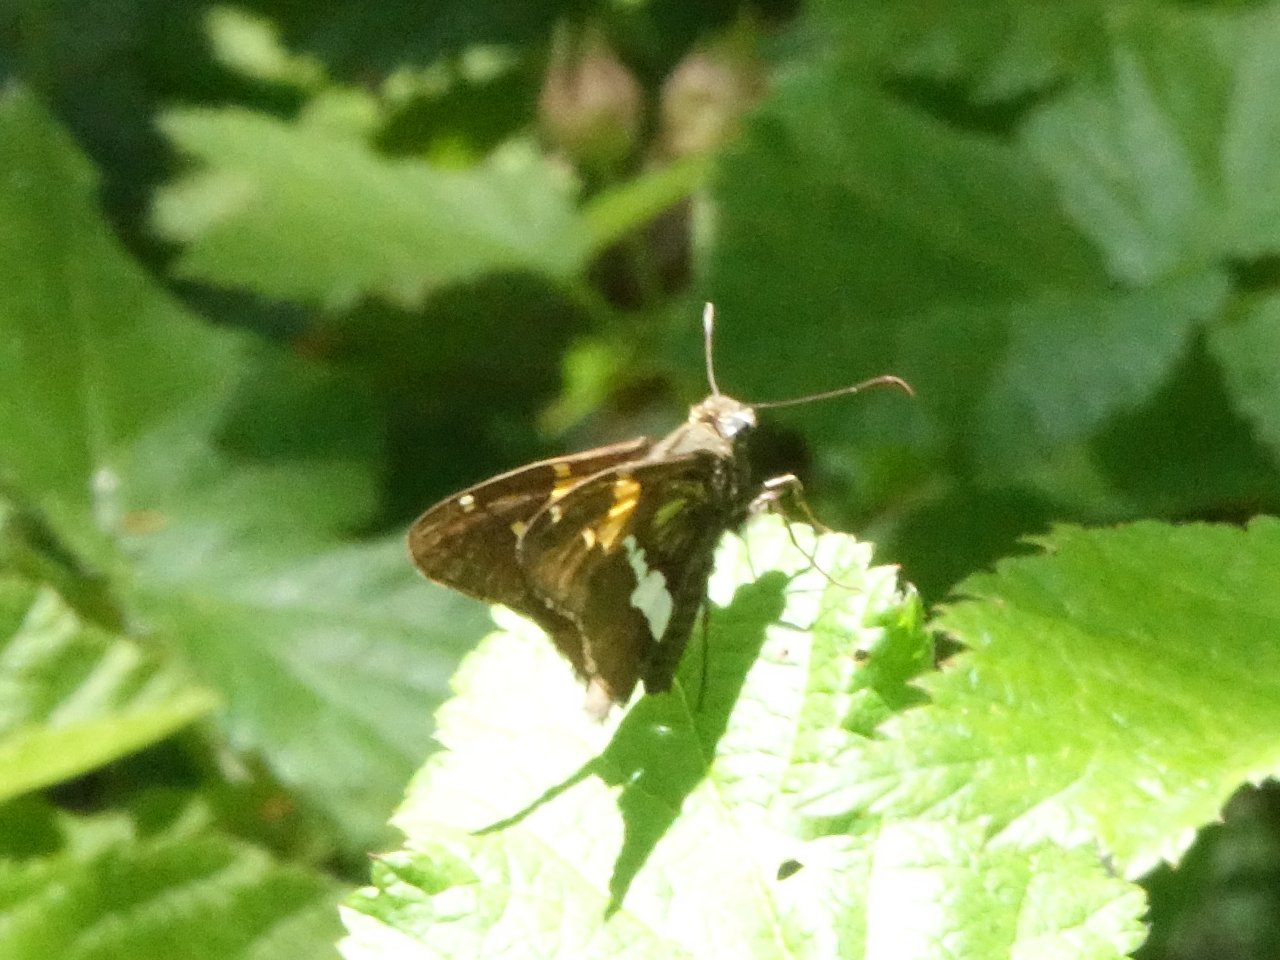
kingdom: Animalia
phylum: Arthropoda
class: Insecta
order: Lepidoptera
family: Hesperiidae
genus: Epargyreus
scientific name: Epargyreus clarus
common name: Silver-spotted Skipper
